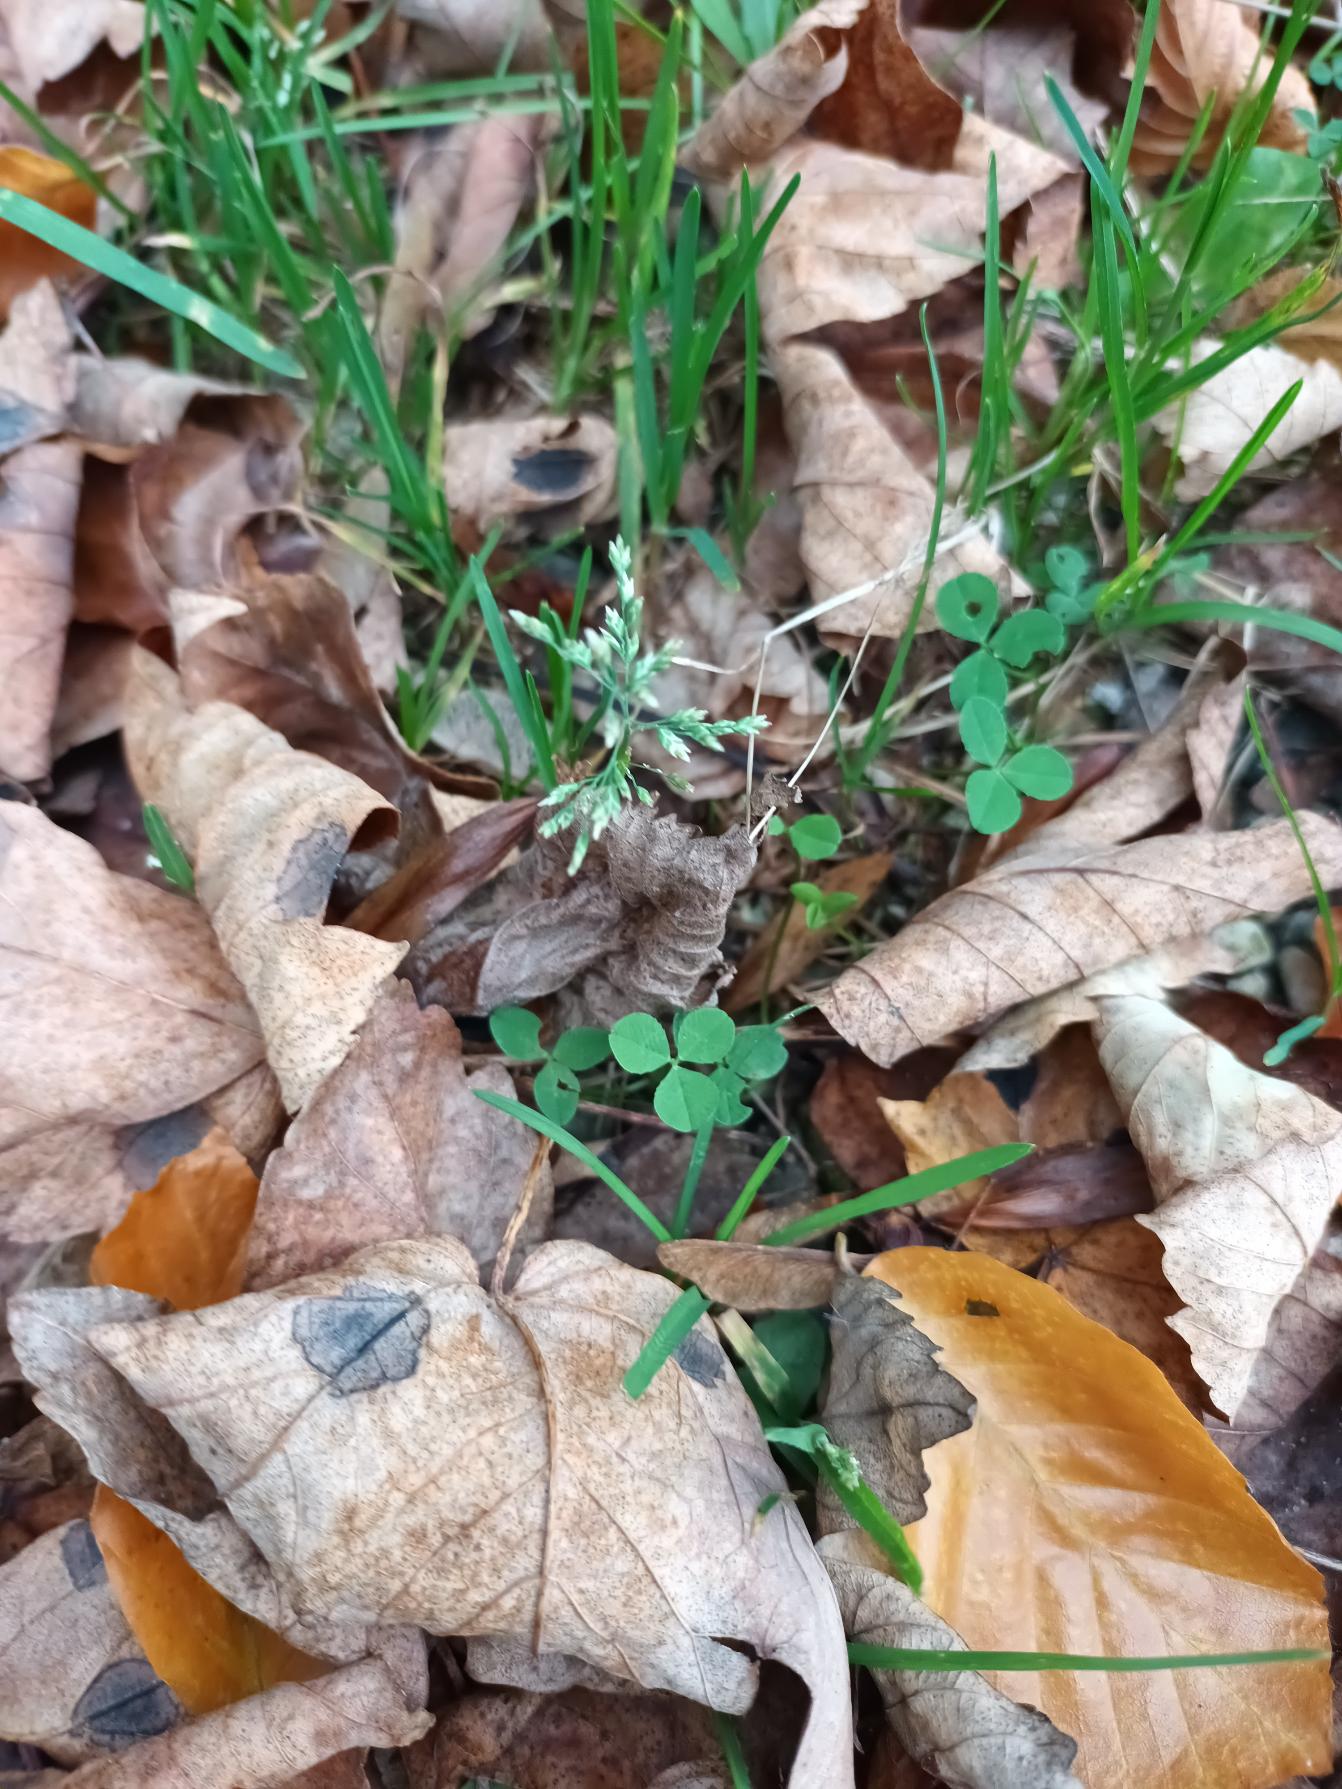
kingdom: Plantae
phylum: Tracheophyta
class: Liliopsida
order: Poales
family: Poaceae
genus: Poa
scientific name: Poa annua
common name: Enårig rapgræs
